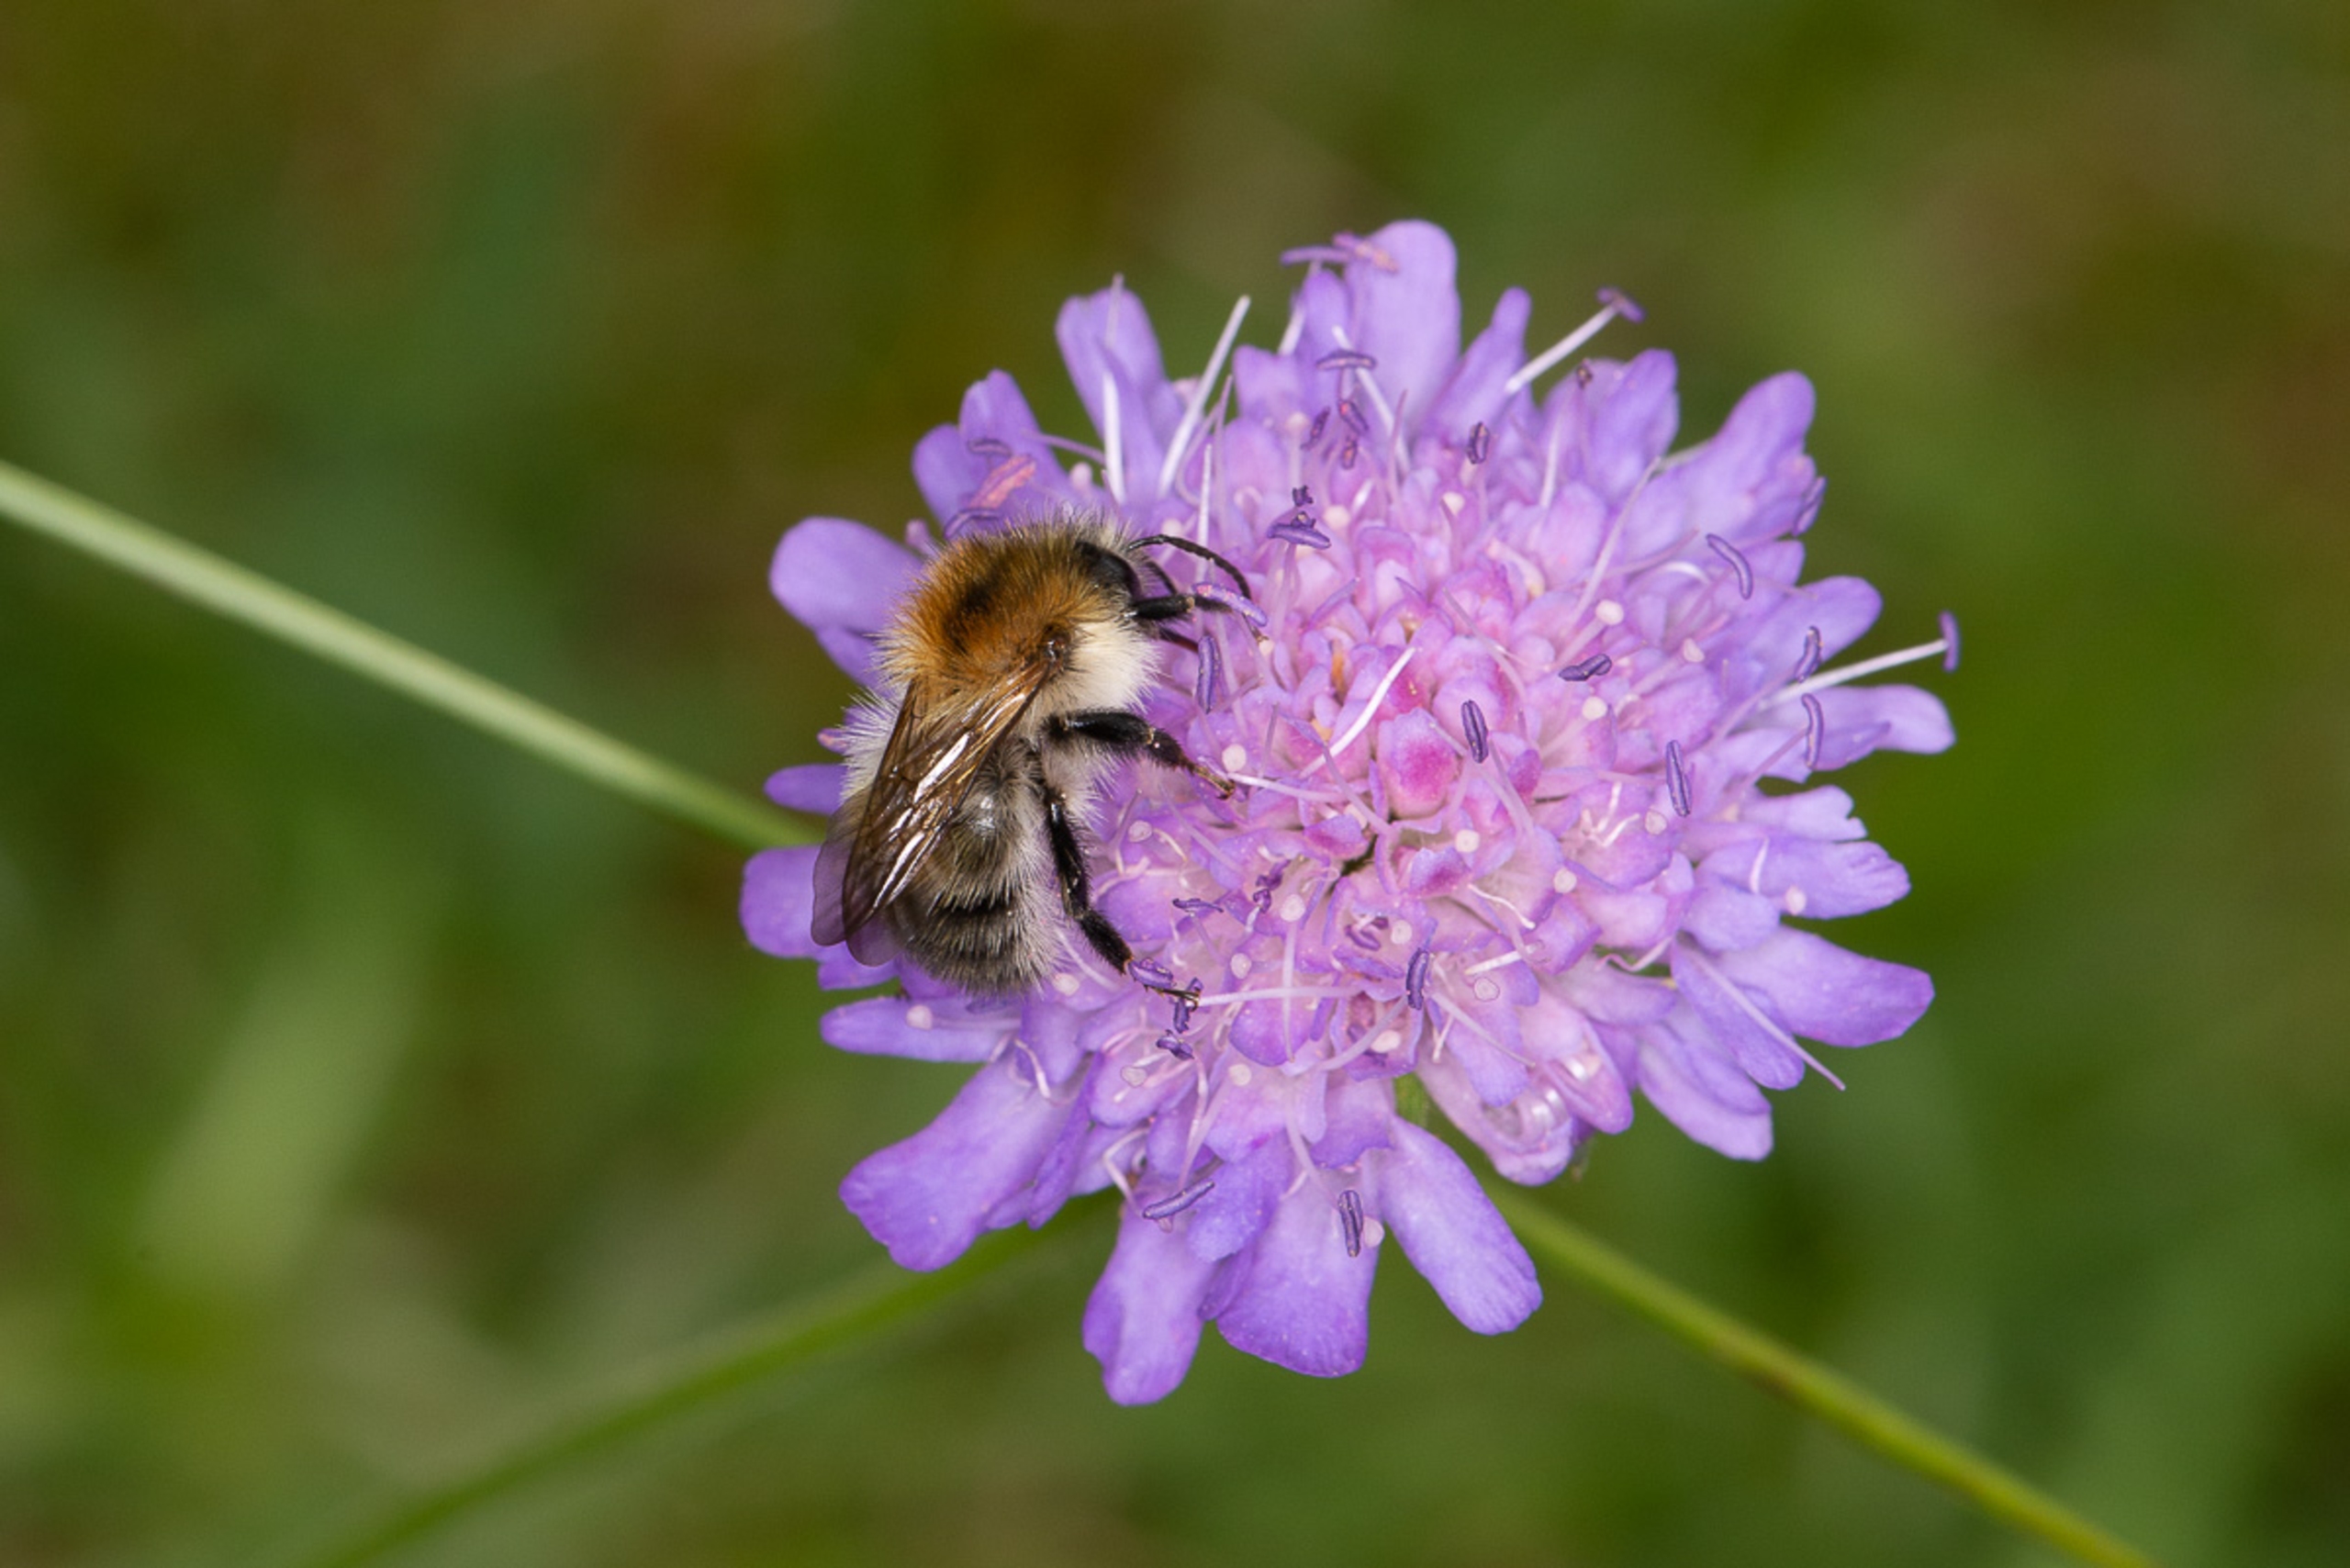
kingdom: Plantae
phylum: Tracheophyta
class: Magnoliopsida
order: Dipsacales
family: Caprifoliaceae
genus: Knautia
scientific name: Knautia arvensis
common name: Blåhat
